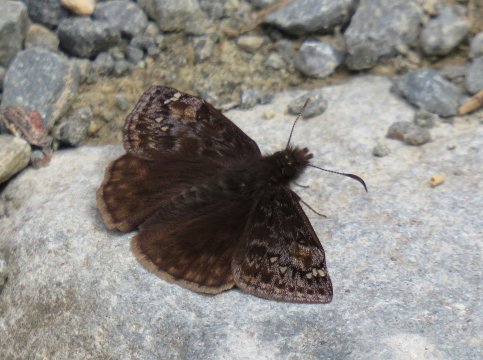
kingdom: Animalia
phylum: Arthropoda
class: Insecta
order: Lepidoptera
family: Hesperiidae
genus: Gesta
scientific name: Gesta
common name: Juvenal's Duskywing
